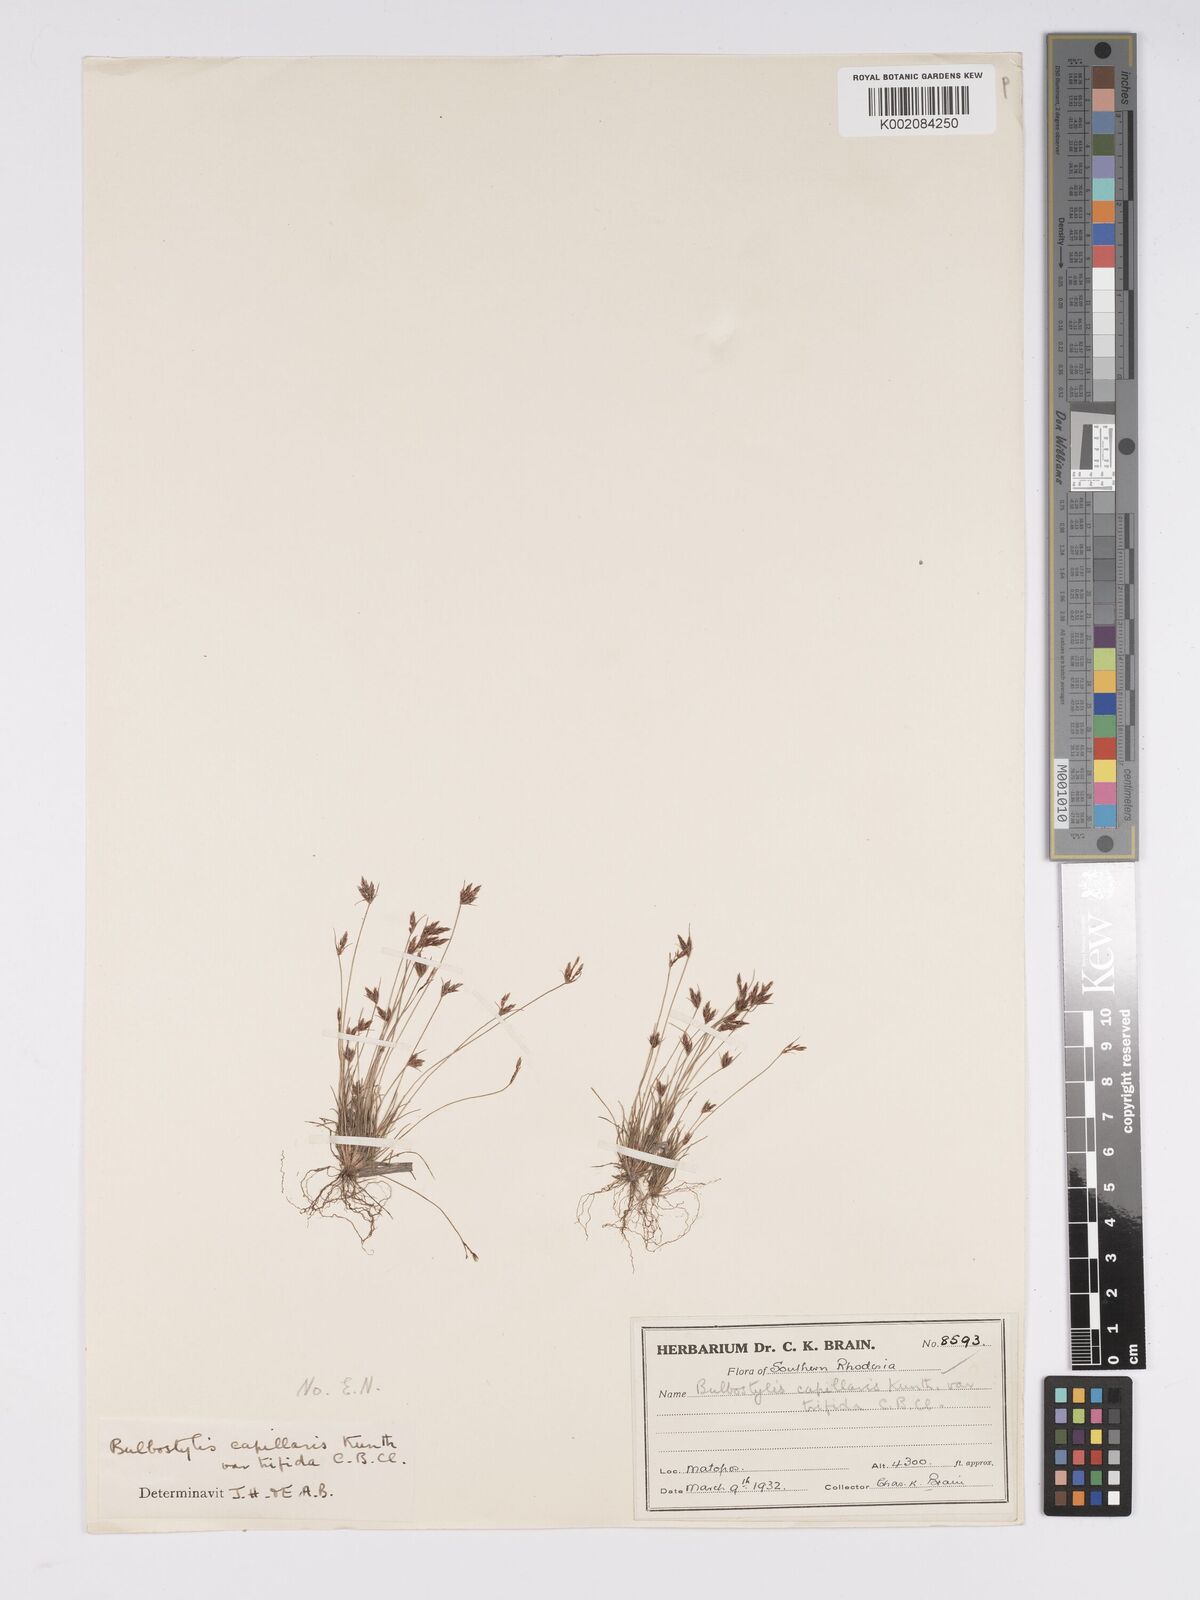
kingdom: Plantae
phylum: Tracheophyta
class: Liliopsida
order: Poales
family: Cyperaceae
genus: Bulbostylis
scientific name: Bulbostylis
